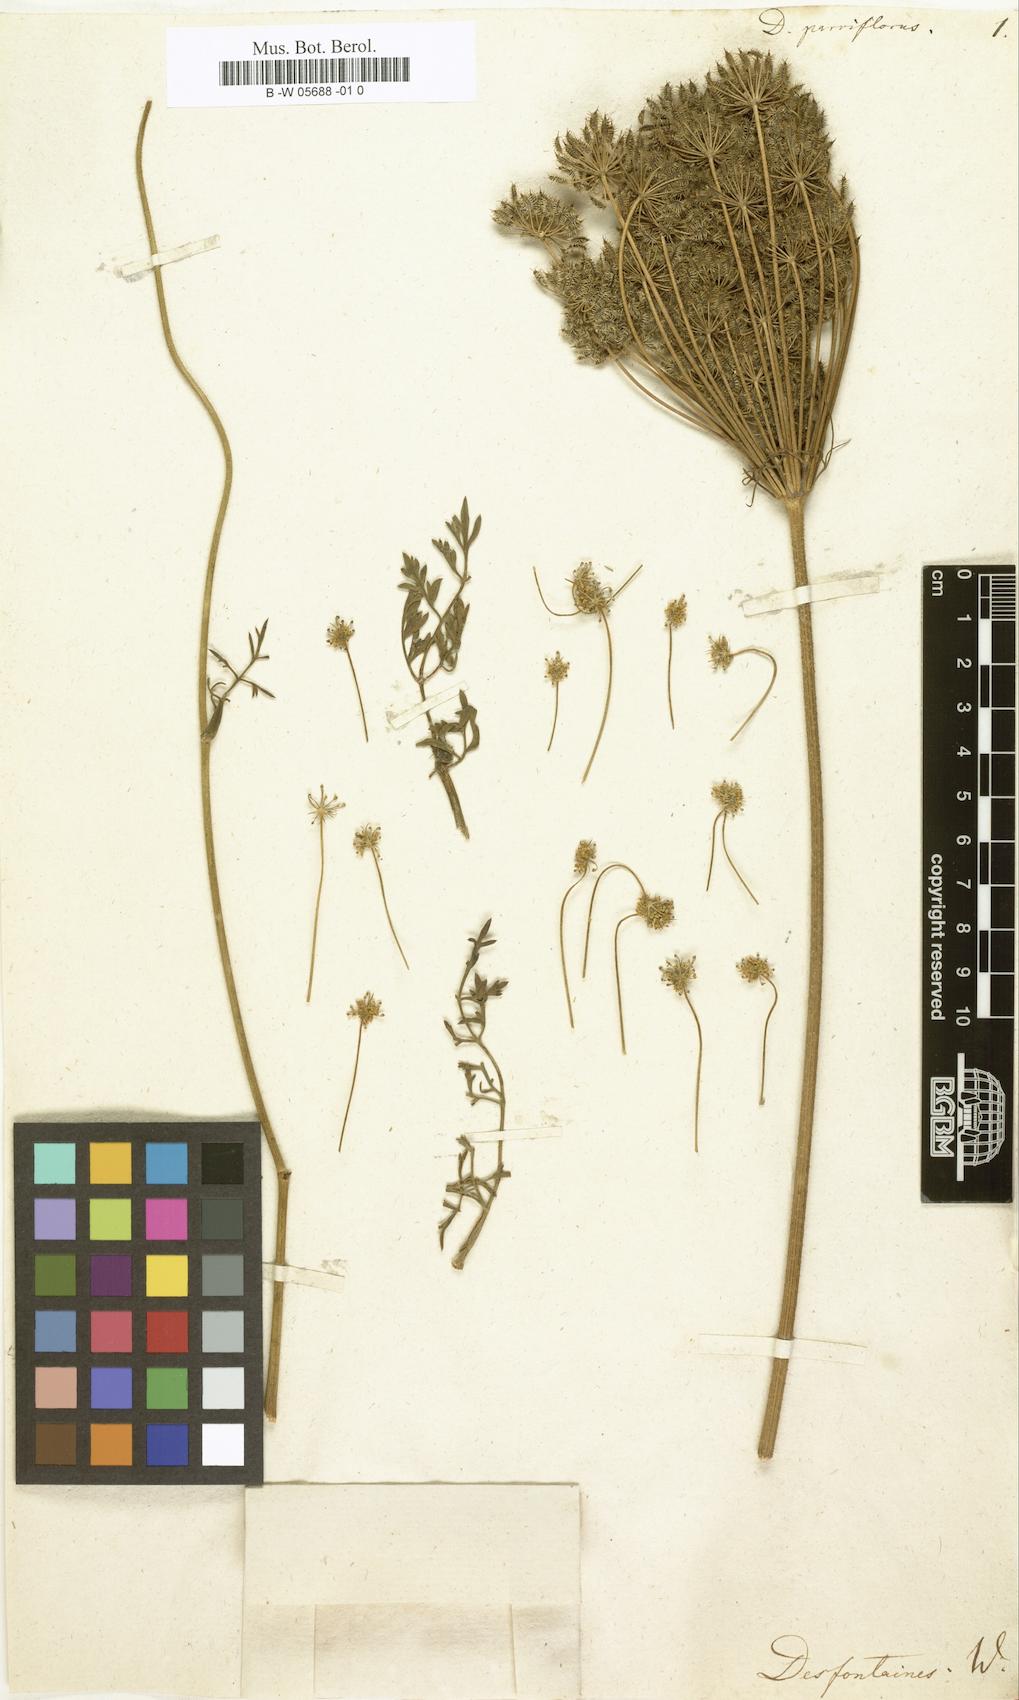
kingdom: Plantae
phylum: Tracheophyta
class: Magnoliopsida
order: Apiales
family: Apiaceae
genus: Daucus
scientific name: Daucus parviflorus
